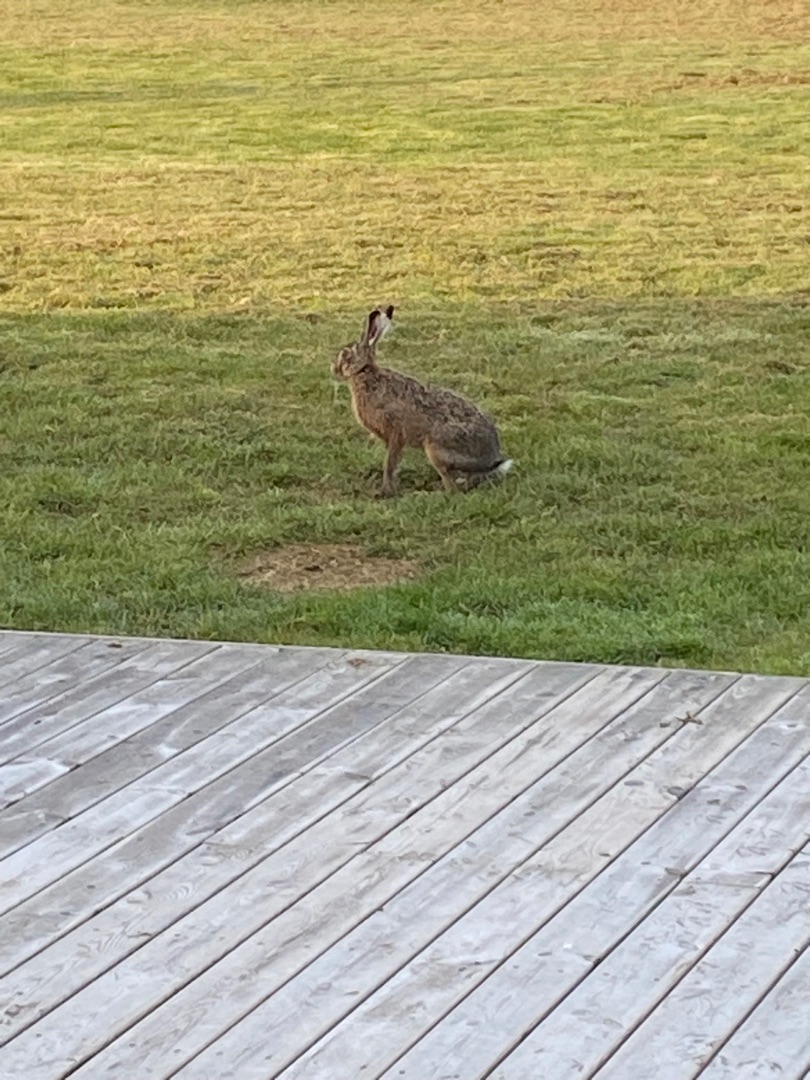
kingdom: Animalia
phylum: Chordata
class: Mammalia
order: Lagomorpha
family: Leporidae
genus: Lepus
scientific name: Lepus europaeus
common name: Hare
